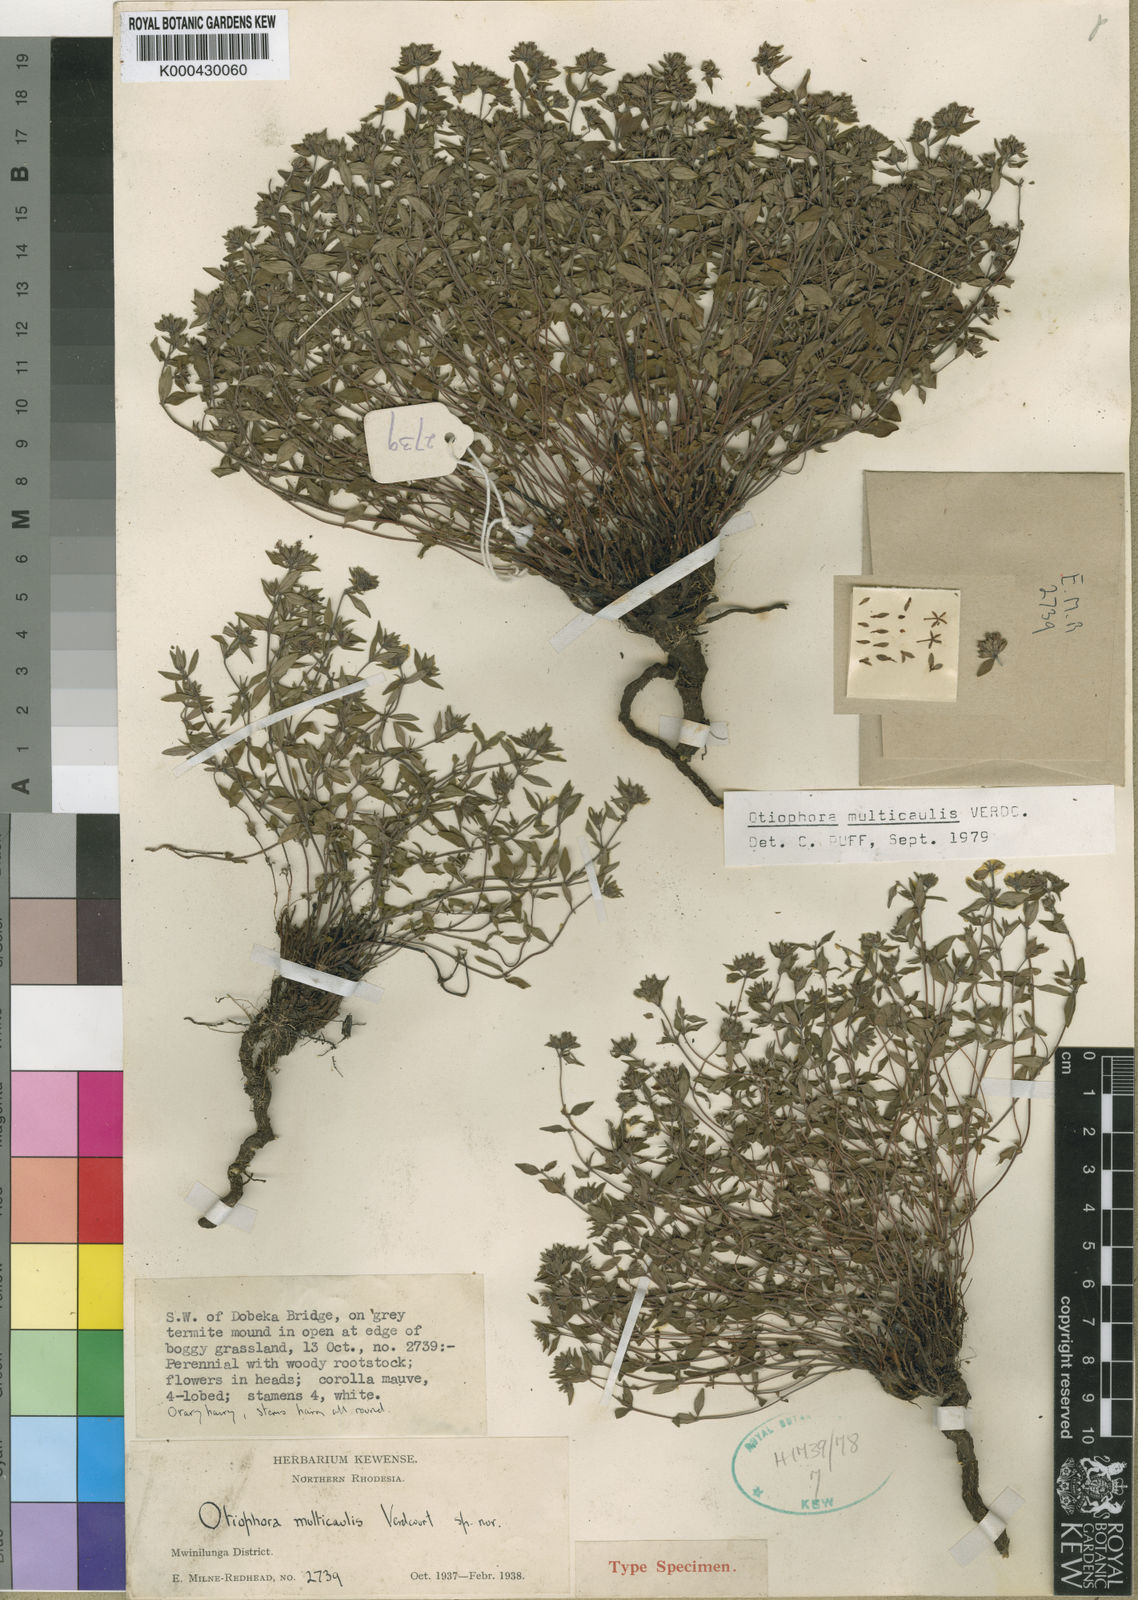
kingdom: Plantae
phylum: Tracheophyta
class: Magnoliopsida
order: Gentianales
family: Rubiaceae
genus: Otiophora
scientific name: Otiophora multicaulis
